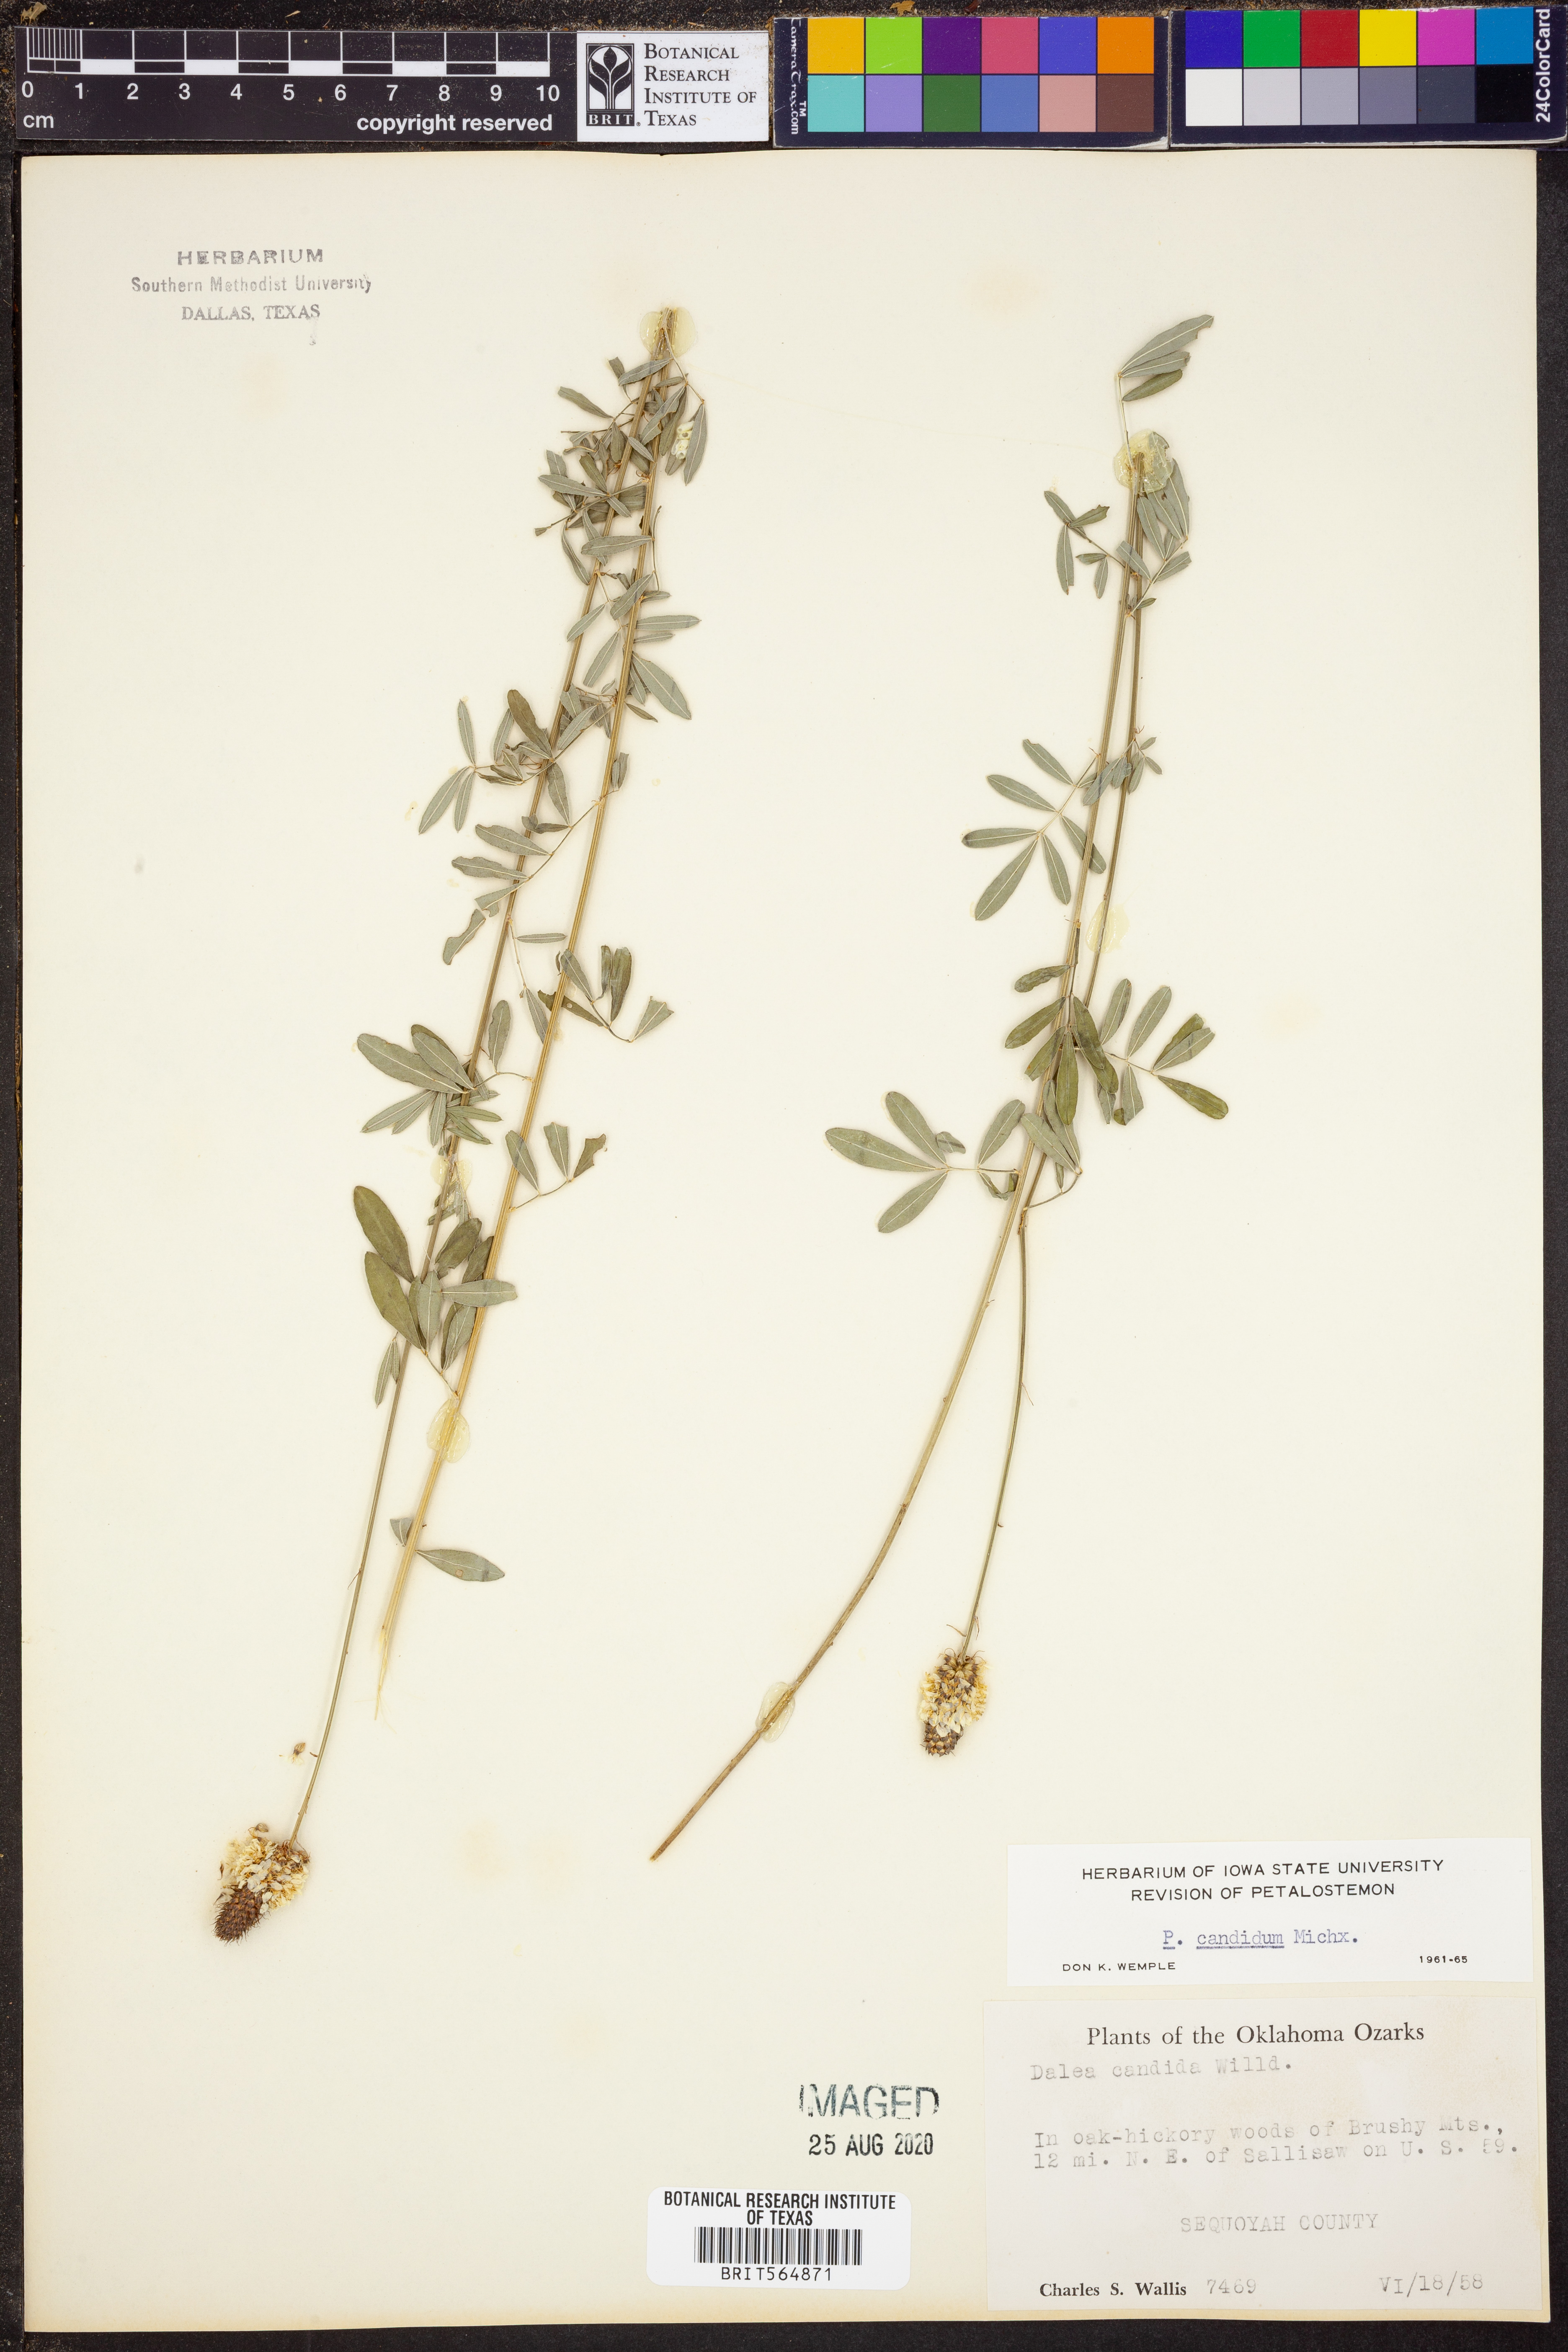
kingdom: Plantae
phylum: Tracheophyta
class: Magnoliopsida
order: Fabales
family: Fabaceae
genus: Dalea
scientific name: Dalea candida
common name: White prairie-clover
